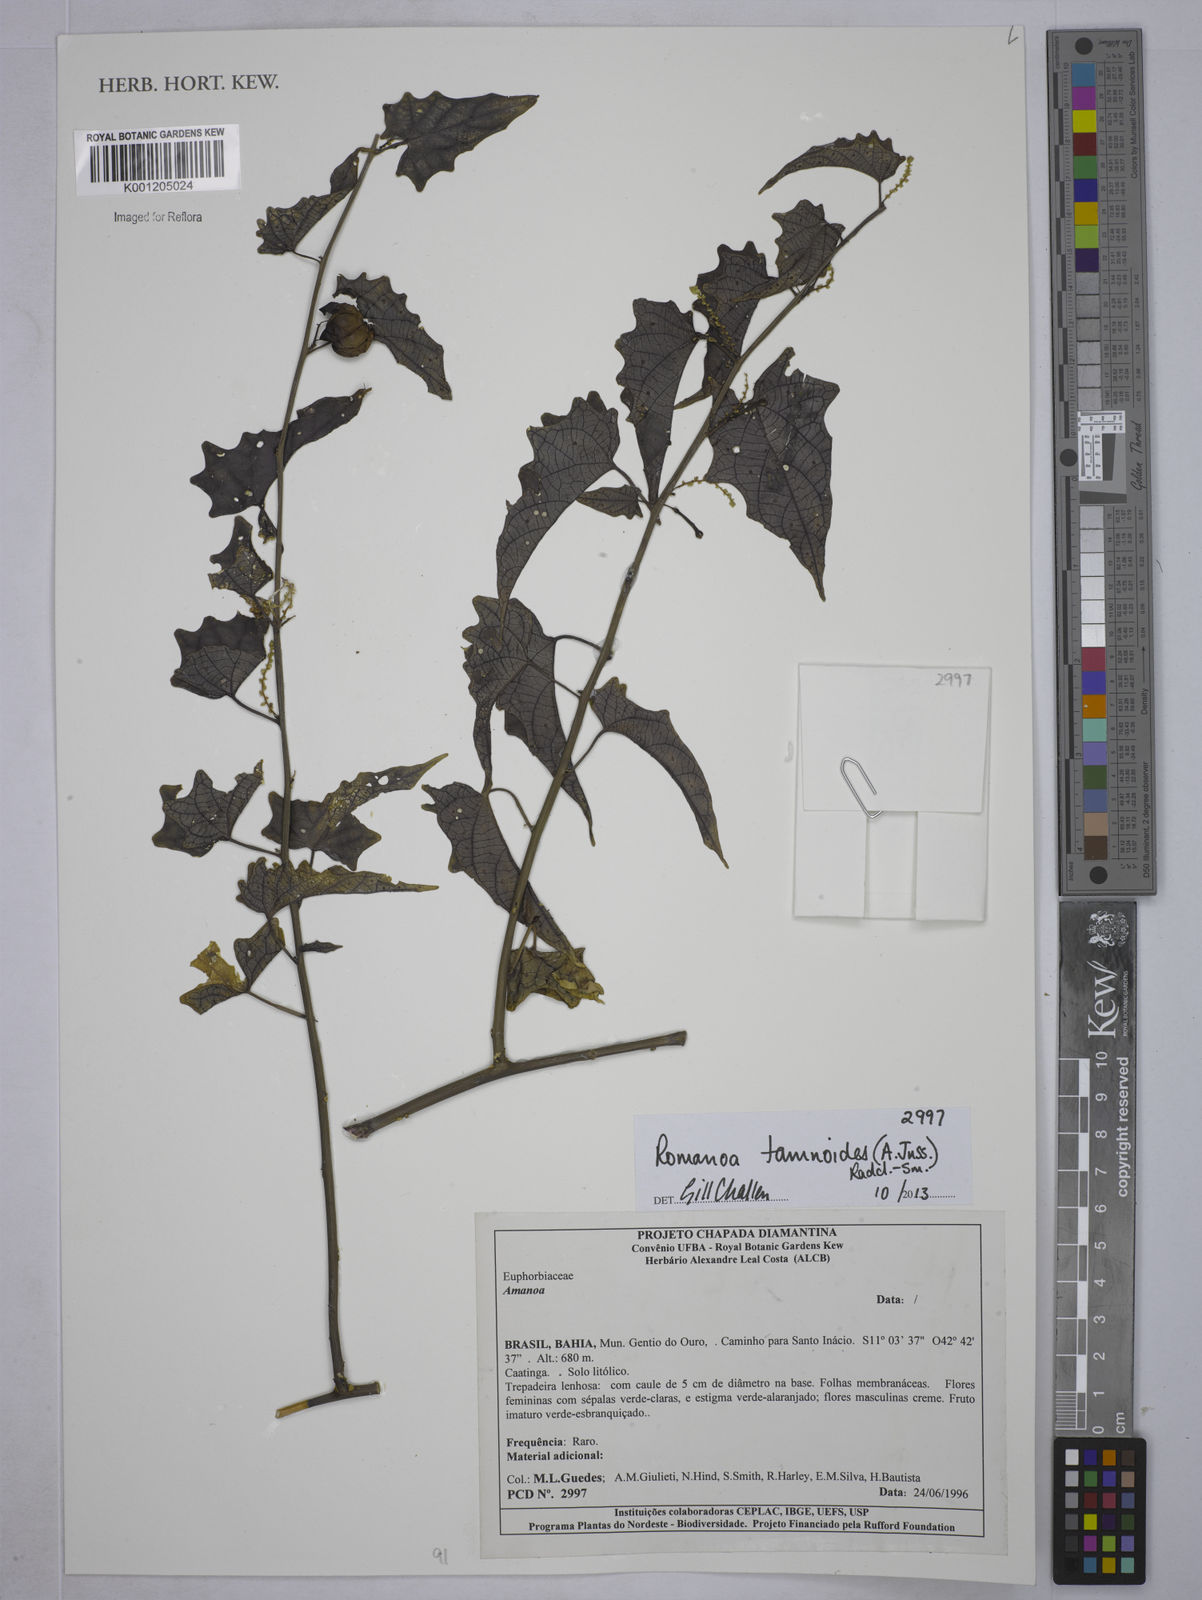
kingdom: Plantae
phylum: Tracheophyta
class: Magnoliopsida
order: Malpighiales
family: Euphorbiaceae
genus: Romanoa
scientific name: Romanoa tamnoides
